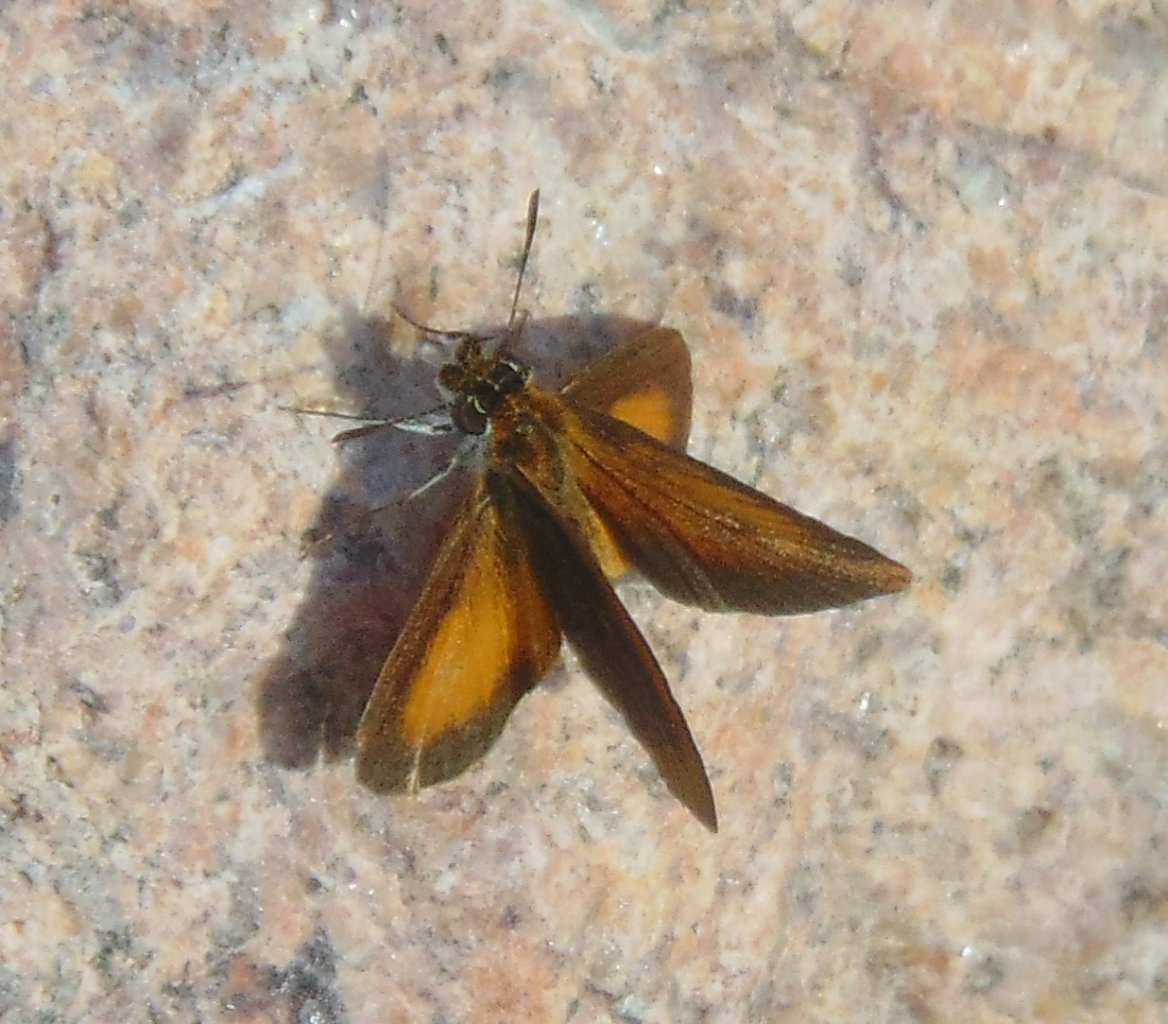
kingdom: Animalia
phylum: Arthropoda
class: Insecta
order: Lepidoptera
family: Hesperiidae
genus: Ancyloxypha
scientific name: Ancyloxypha numitor
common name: Least Skipper
